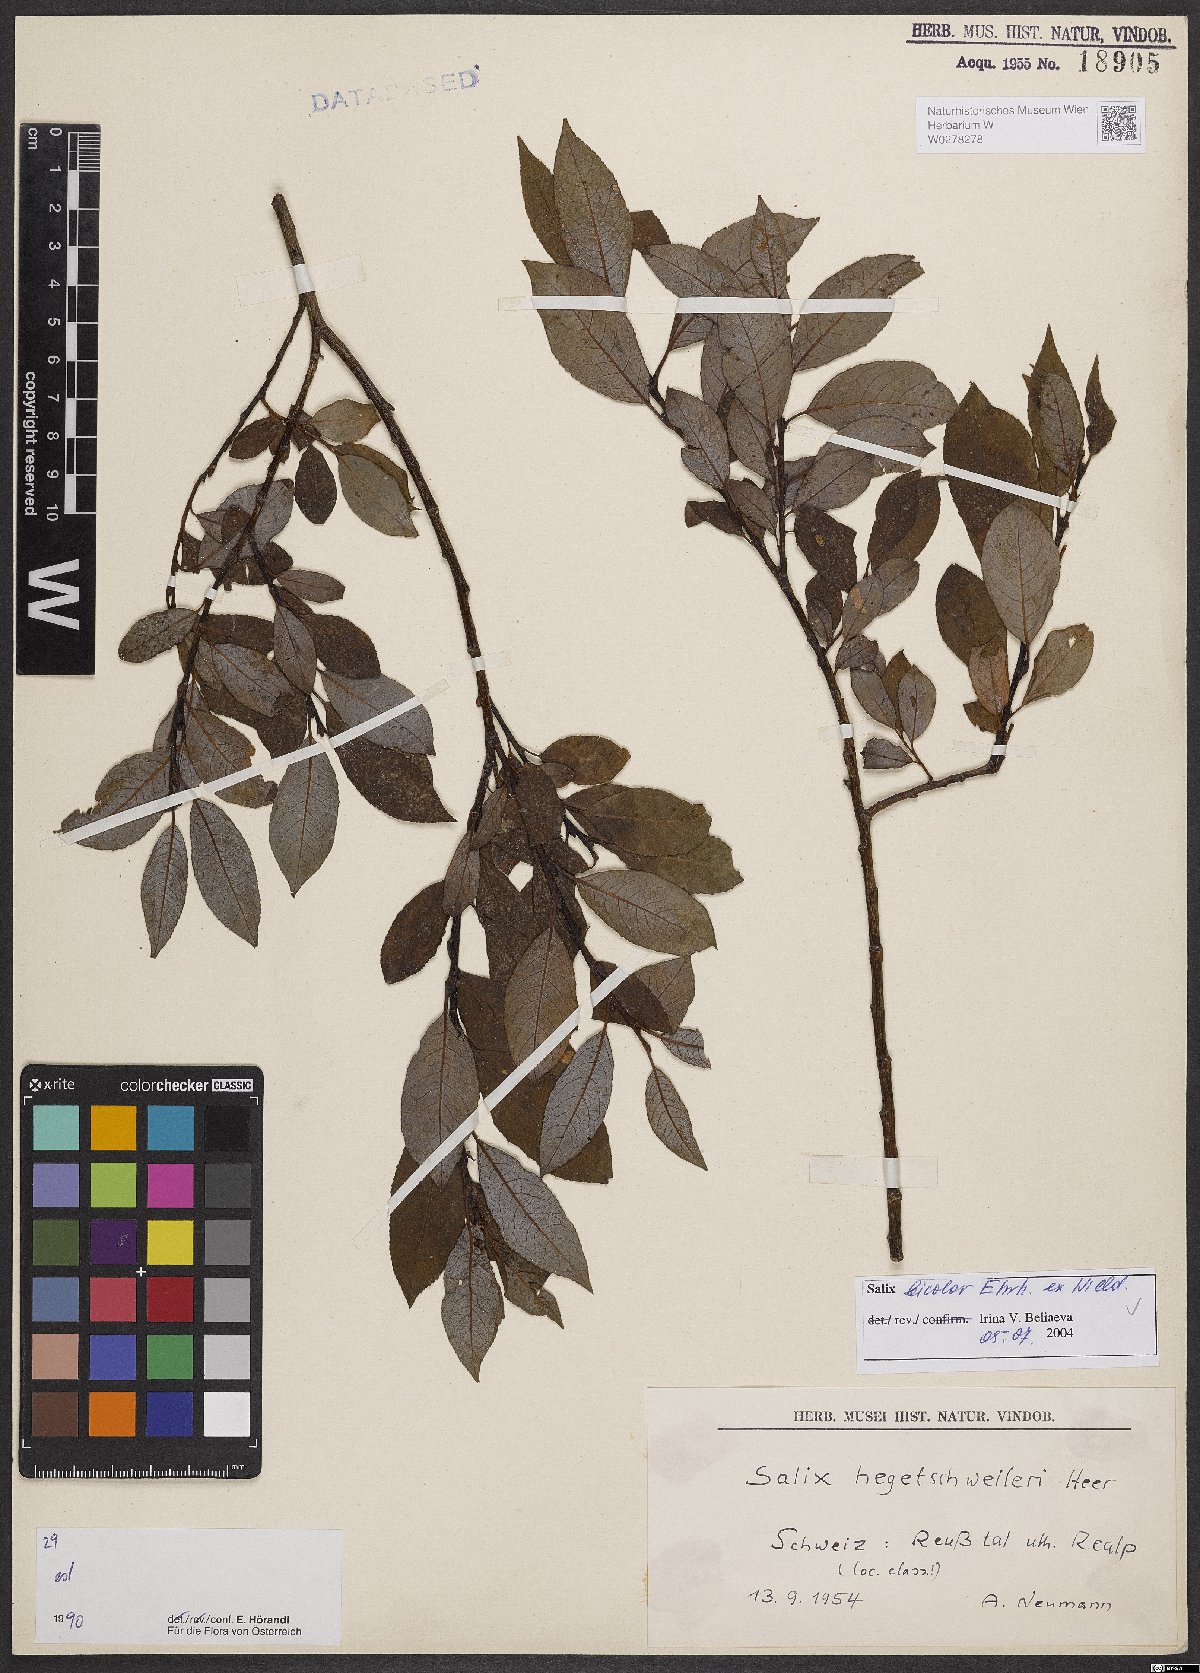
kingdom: Plantae
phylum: Tracheophyta
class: Magnoliopsida
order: Malpighiales
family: Salicaceae
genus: Salix
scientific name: Salix bicolor
